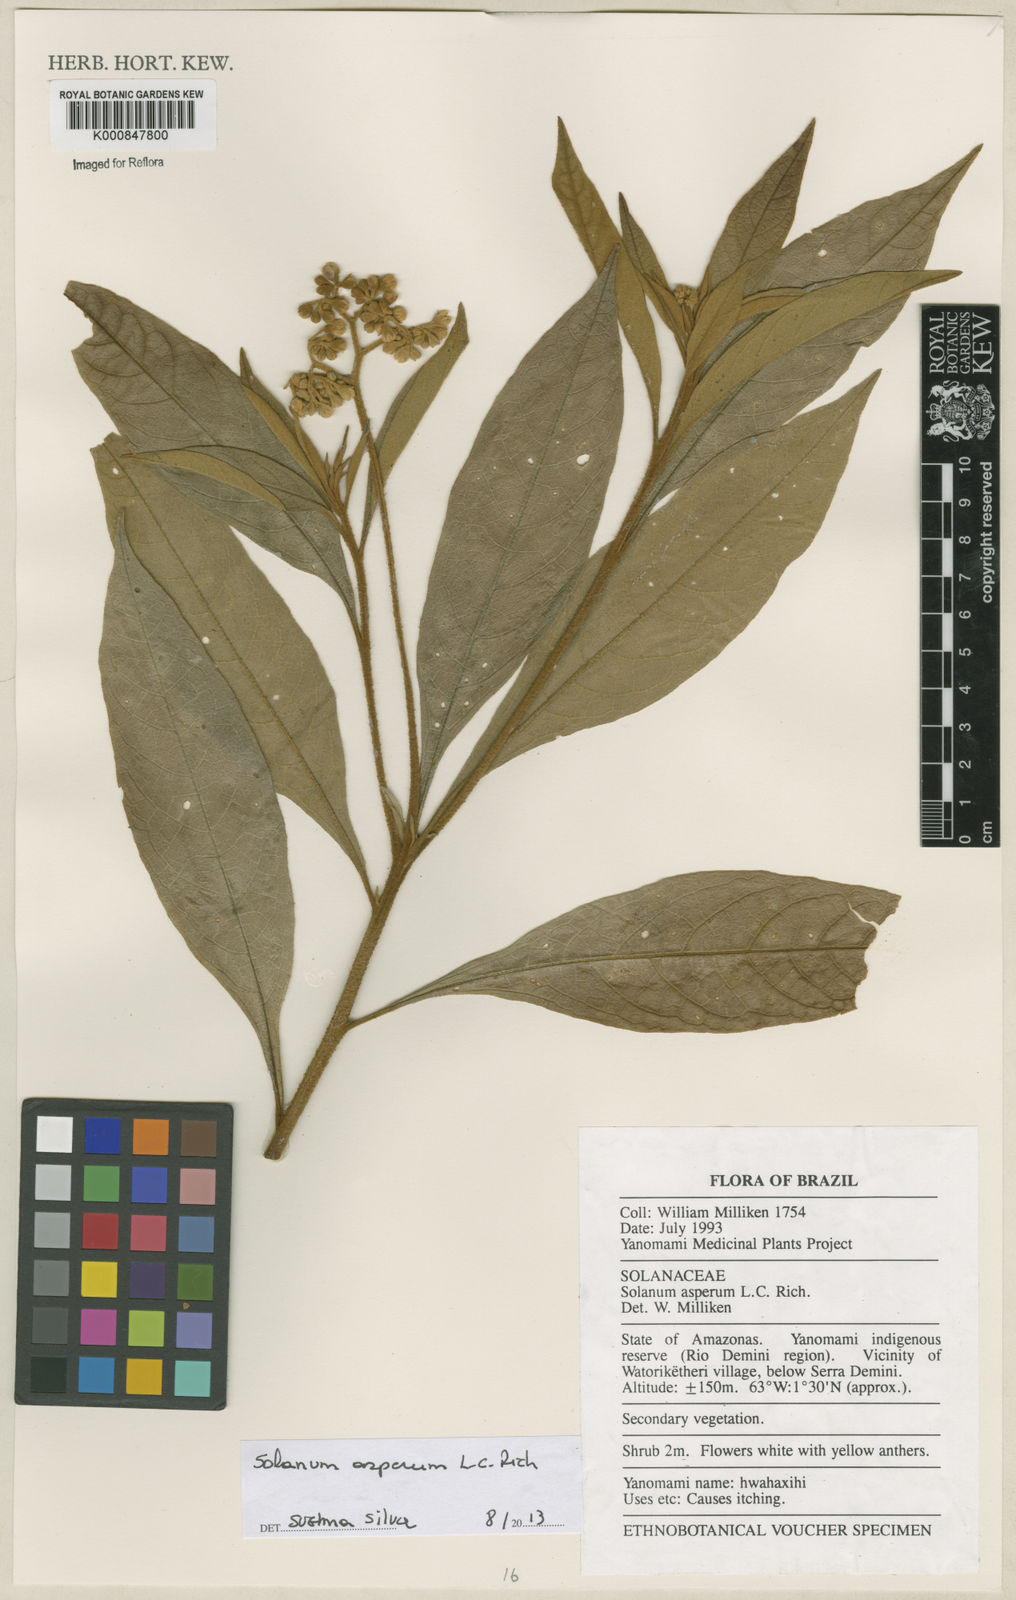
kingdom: Plantae
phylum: Tracheophyta
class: Magnoliopsida
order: Solanales
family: Solanaceae
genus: Solanum
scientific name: Solanum asperum
